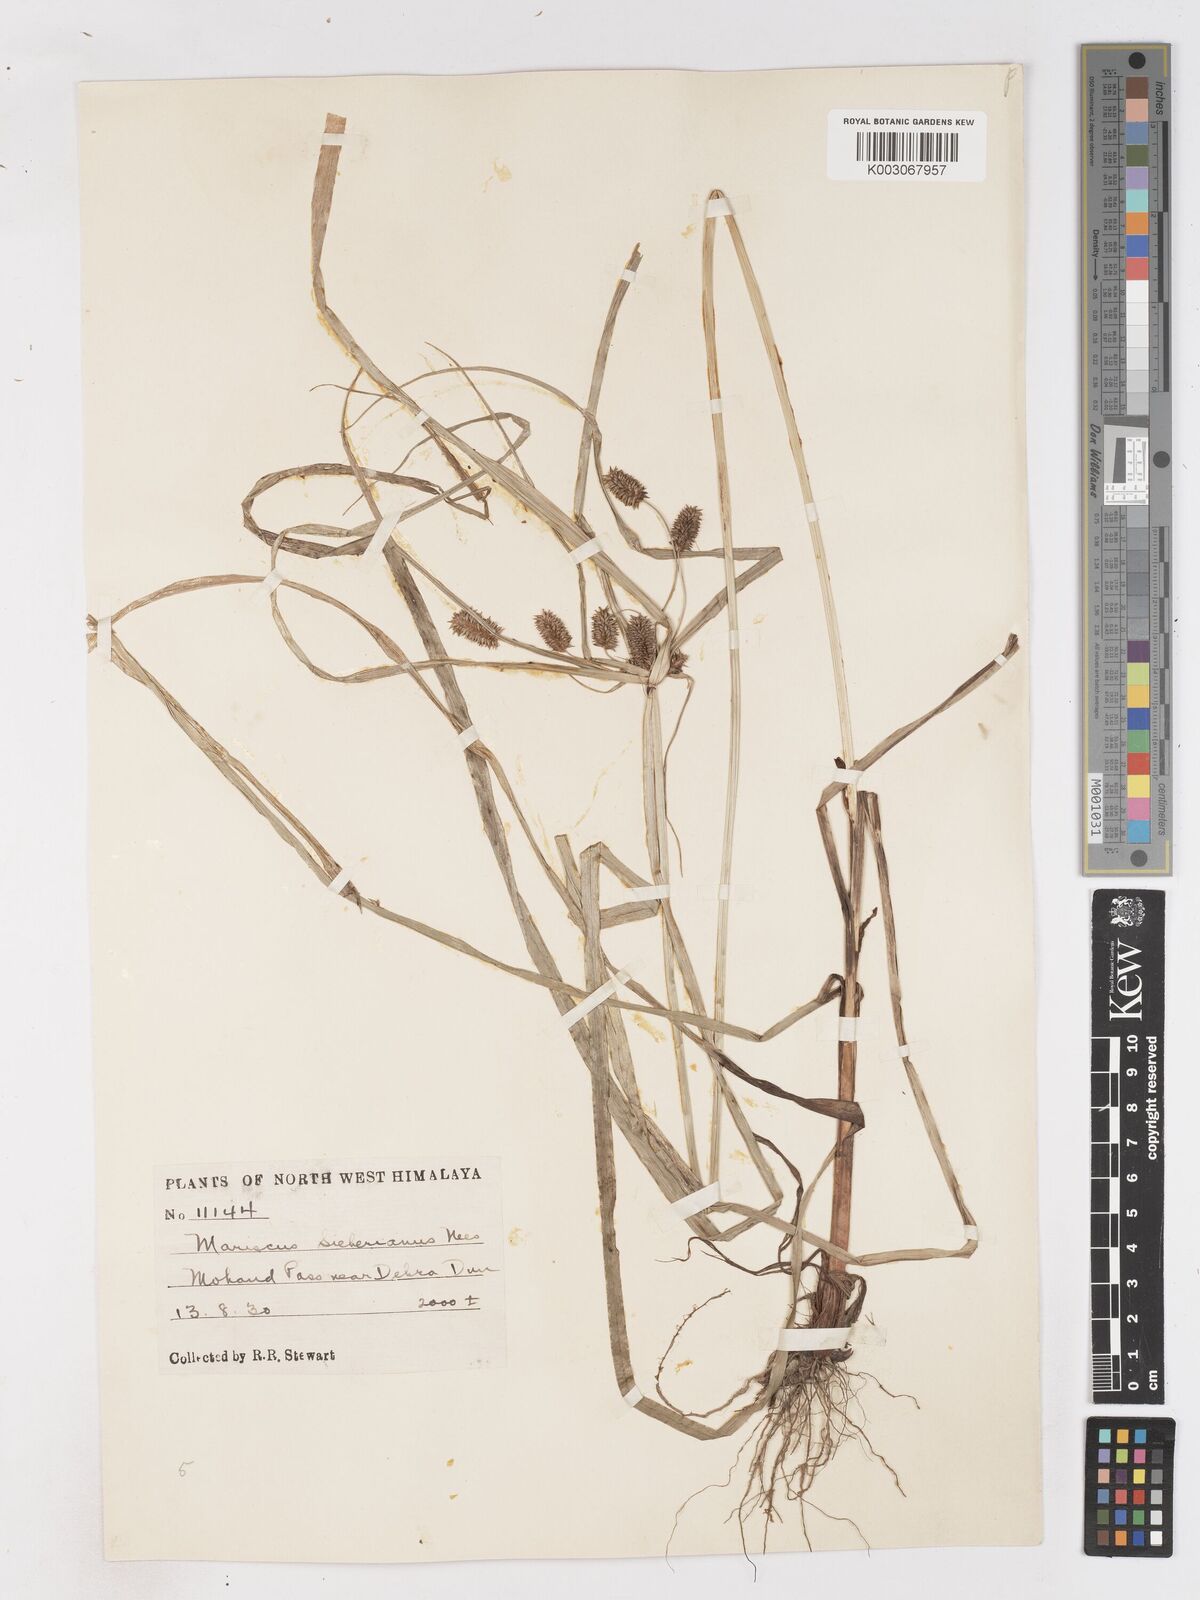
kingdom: Plantae
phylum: Tracheophyta
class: Liliopsida
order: Poales
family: Cyperaceae
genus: Cyperus
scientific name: Cyperus paniceus
